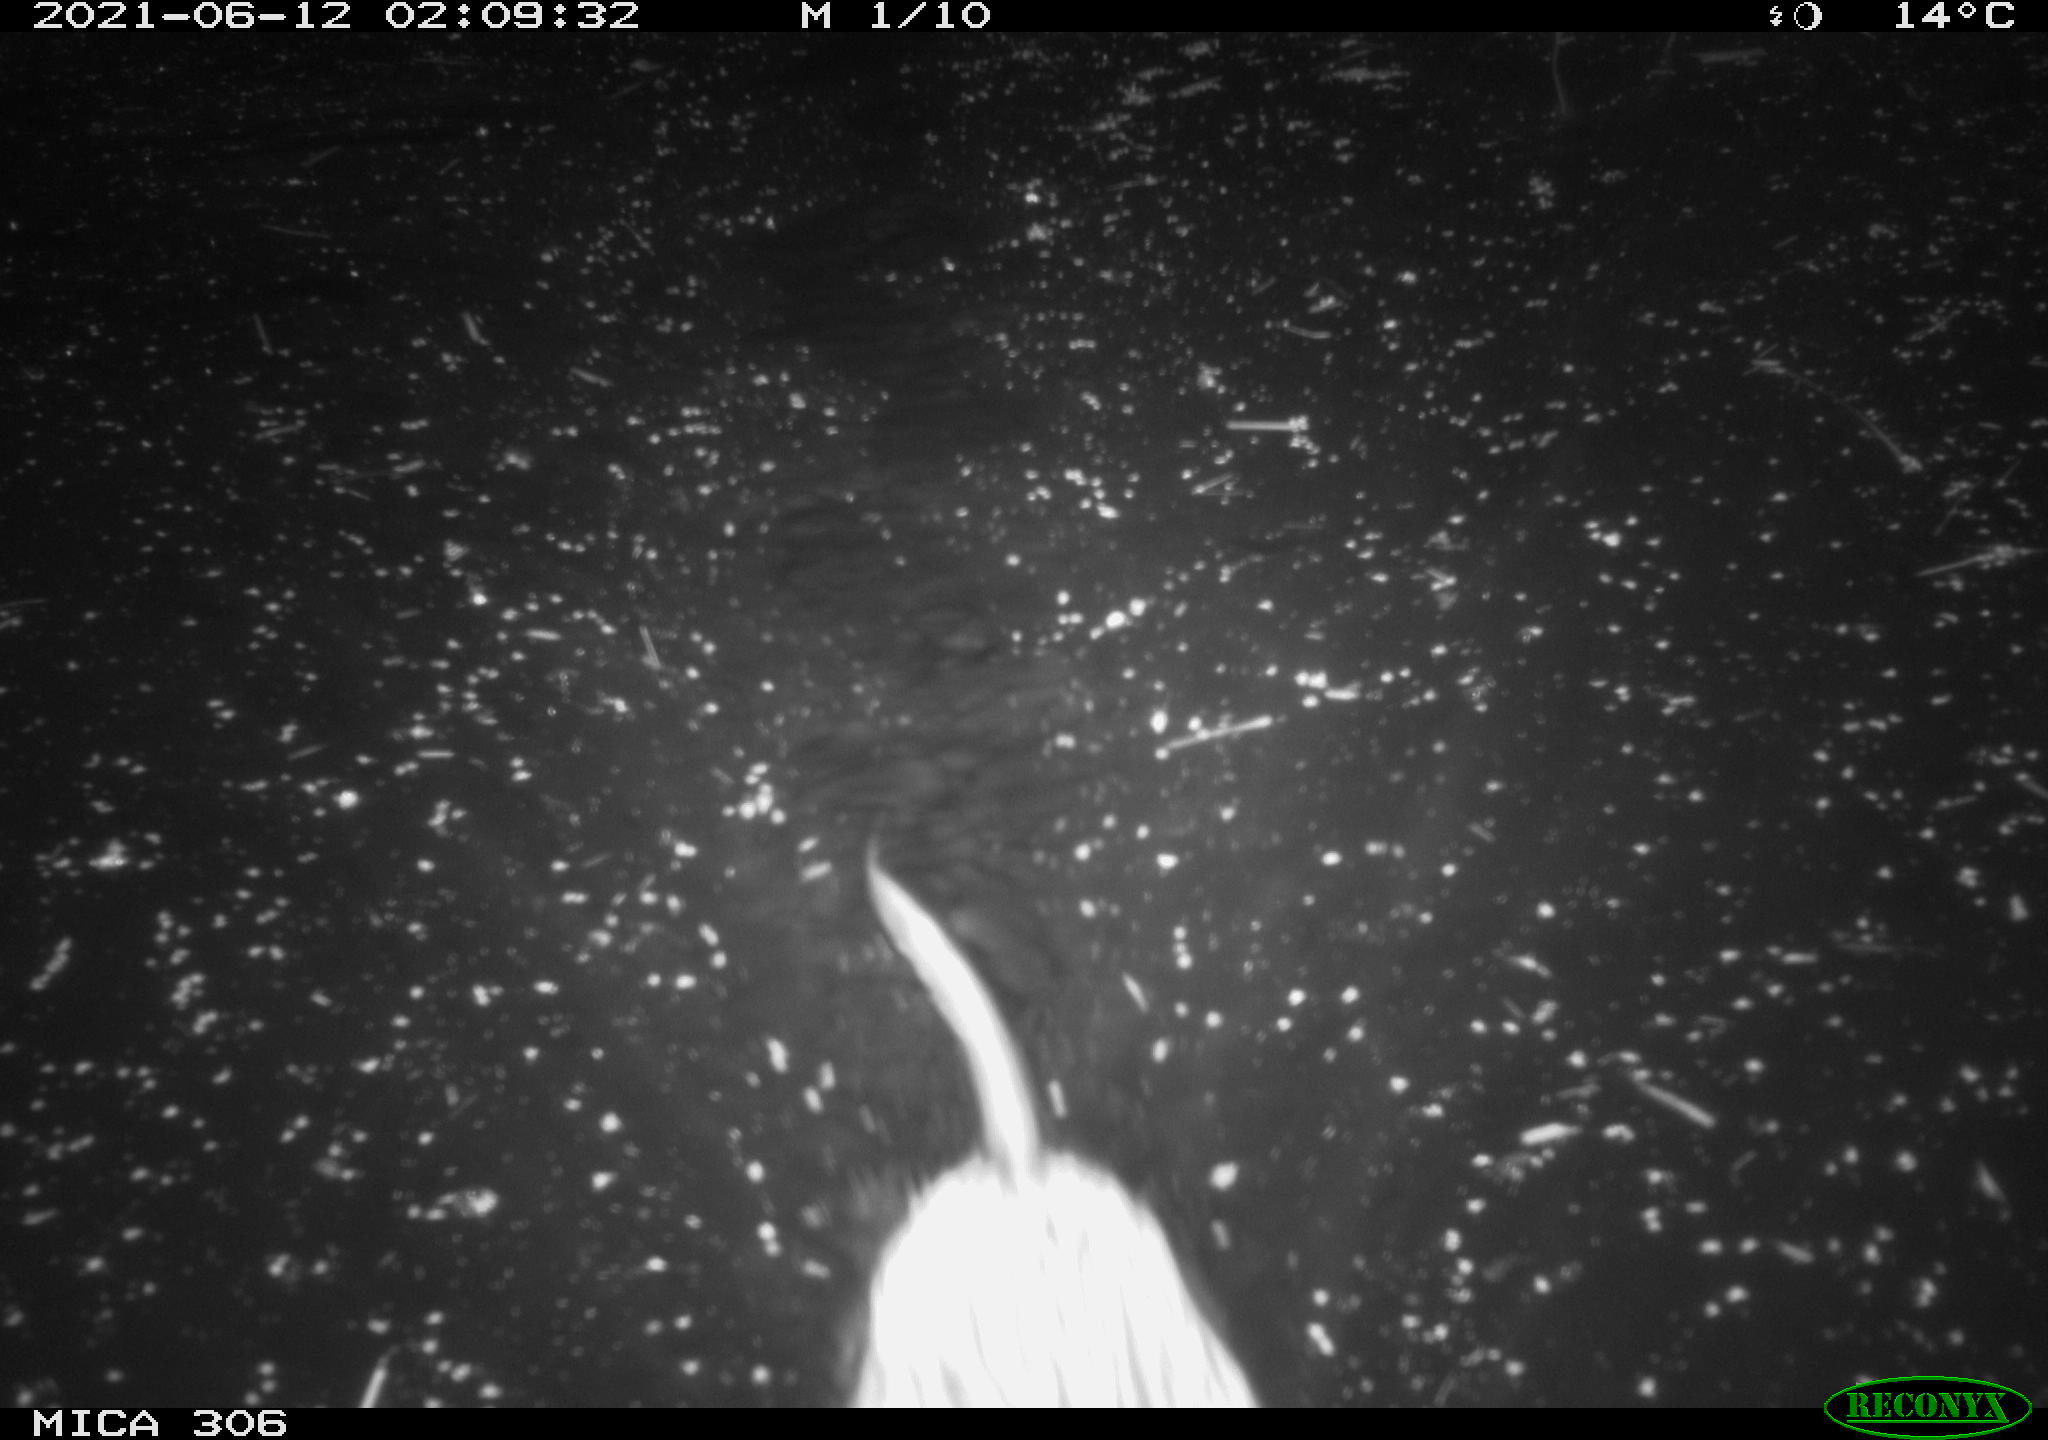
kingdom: Animalia
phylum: Chordata
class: Mammalia
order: Rodentia
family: Cricetidae
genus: Ondatra
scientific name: Ondatra zibethicus
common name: Muskrat
